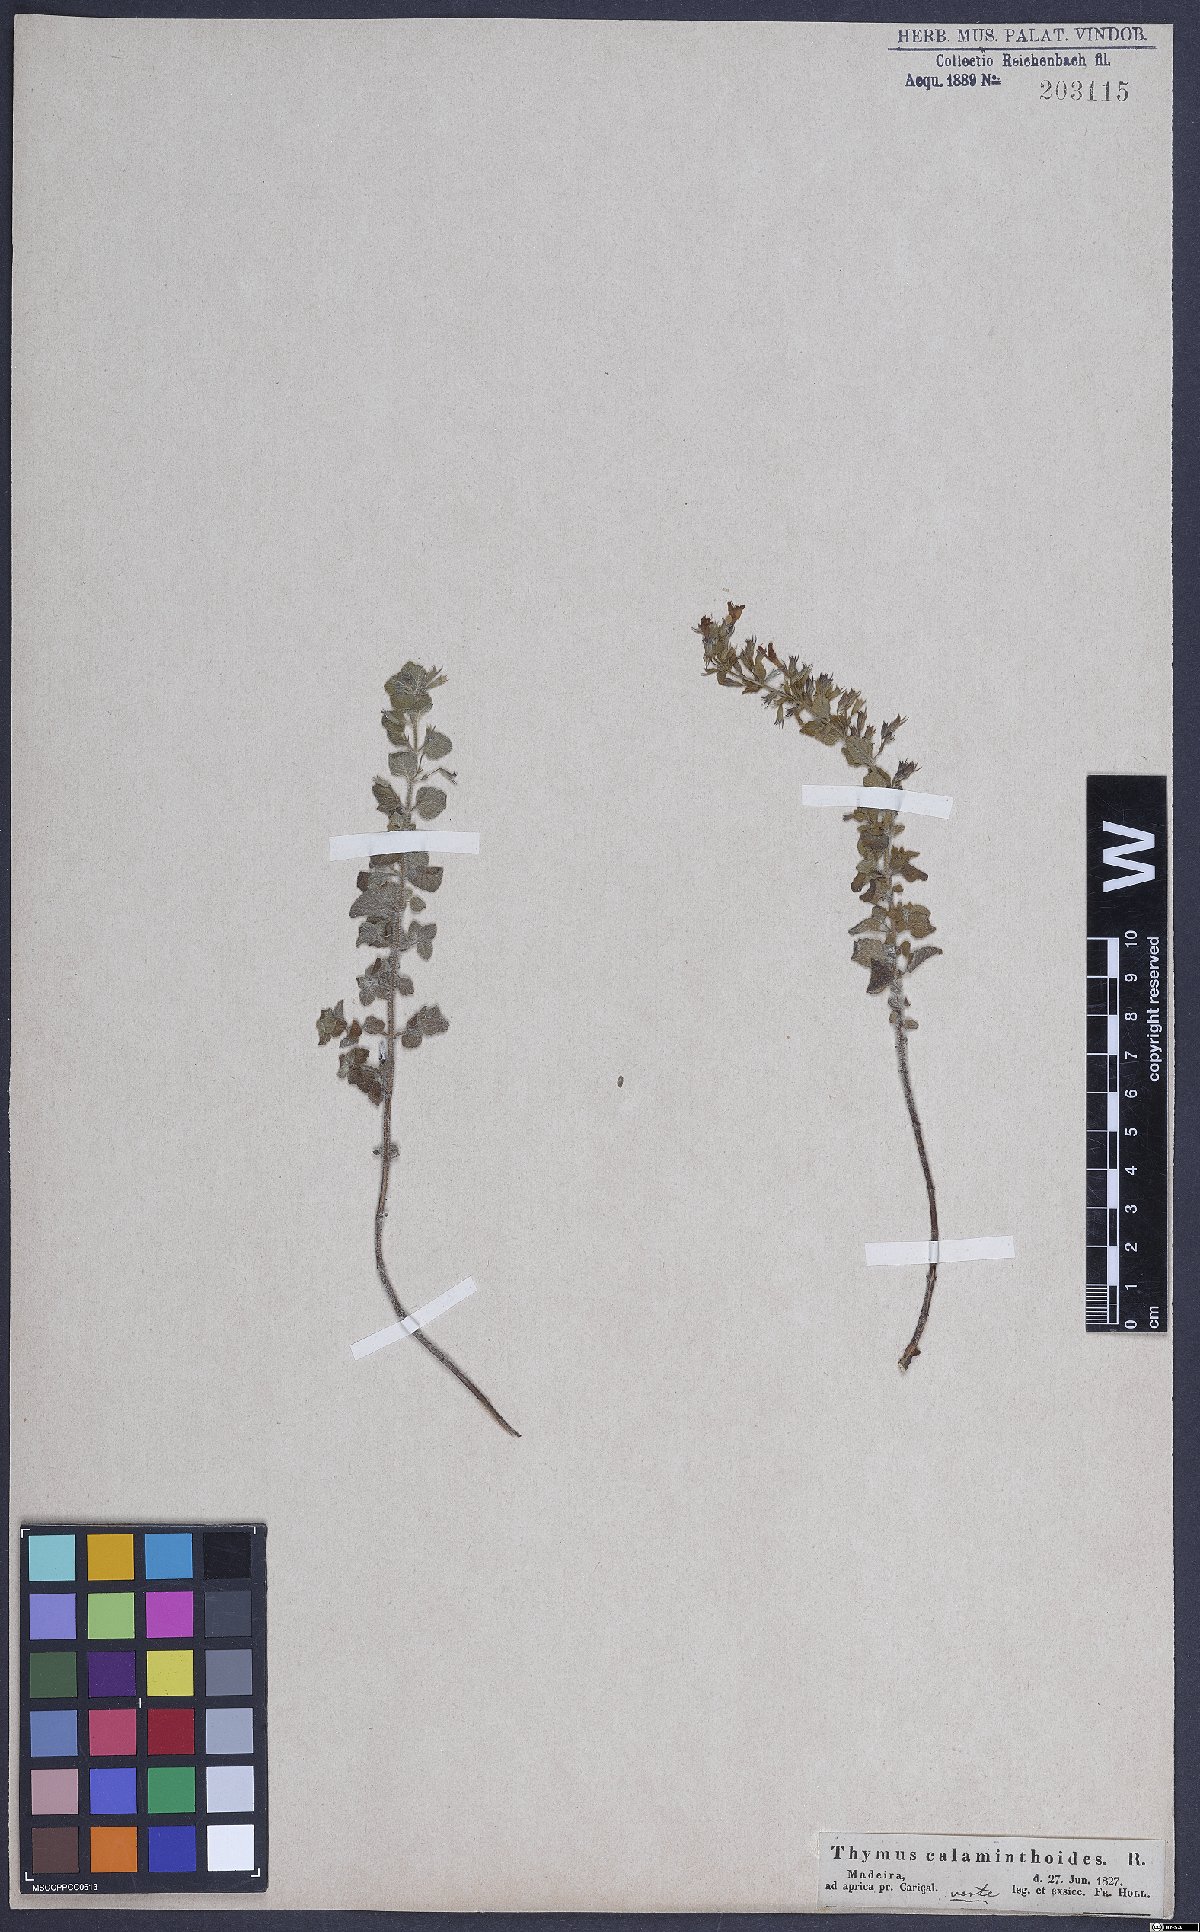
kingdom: Plantae
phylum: Tracheophyta
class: Magnoliopsida
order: Lamiales
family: Lamiaceae
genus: Calamintha
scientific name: Calamintha
